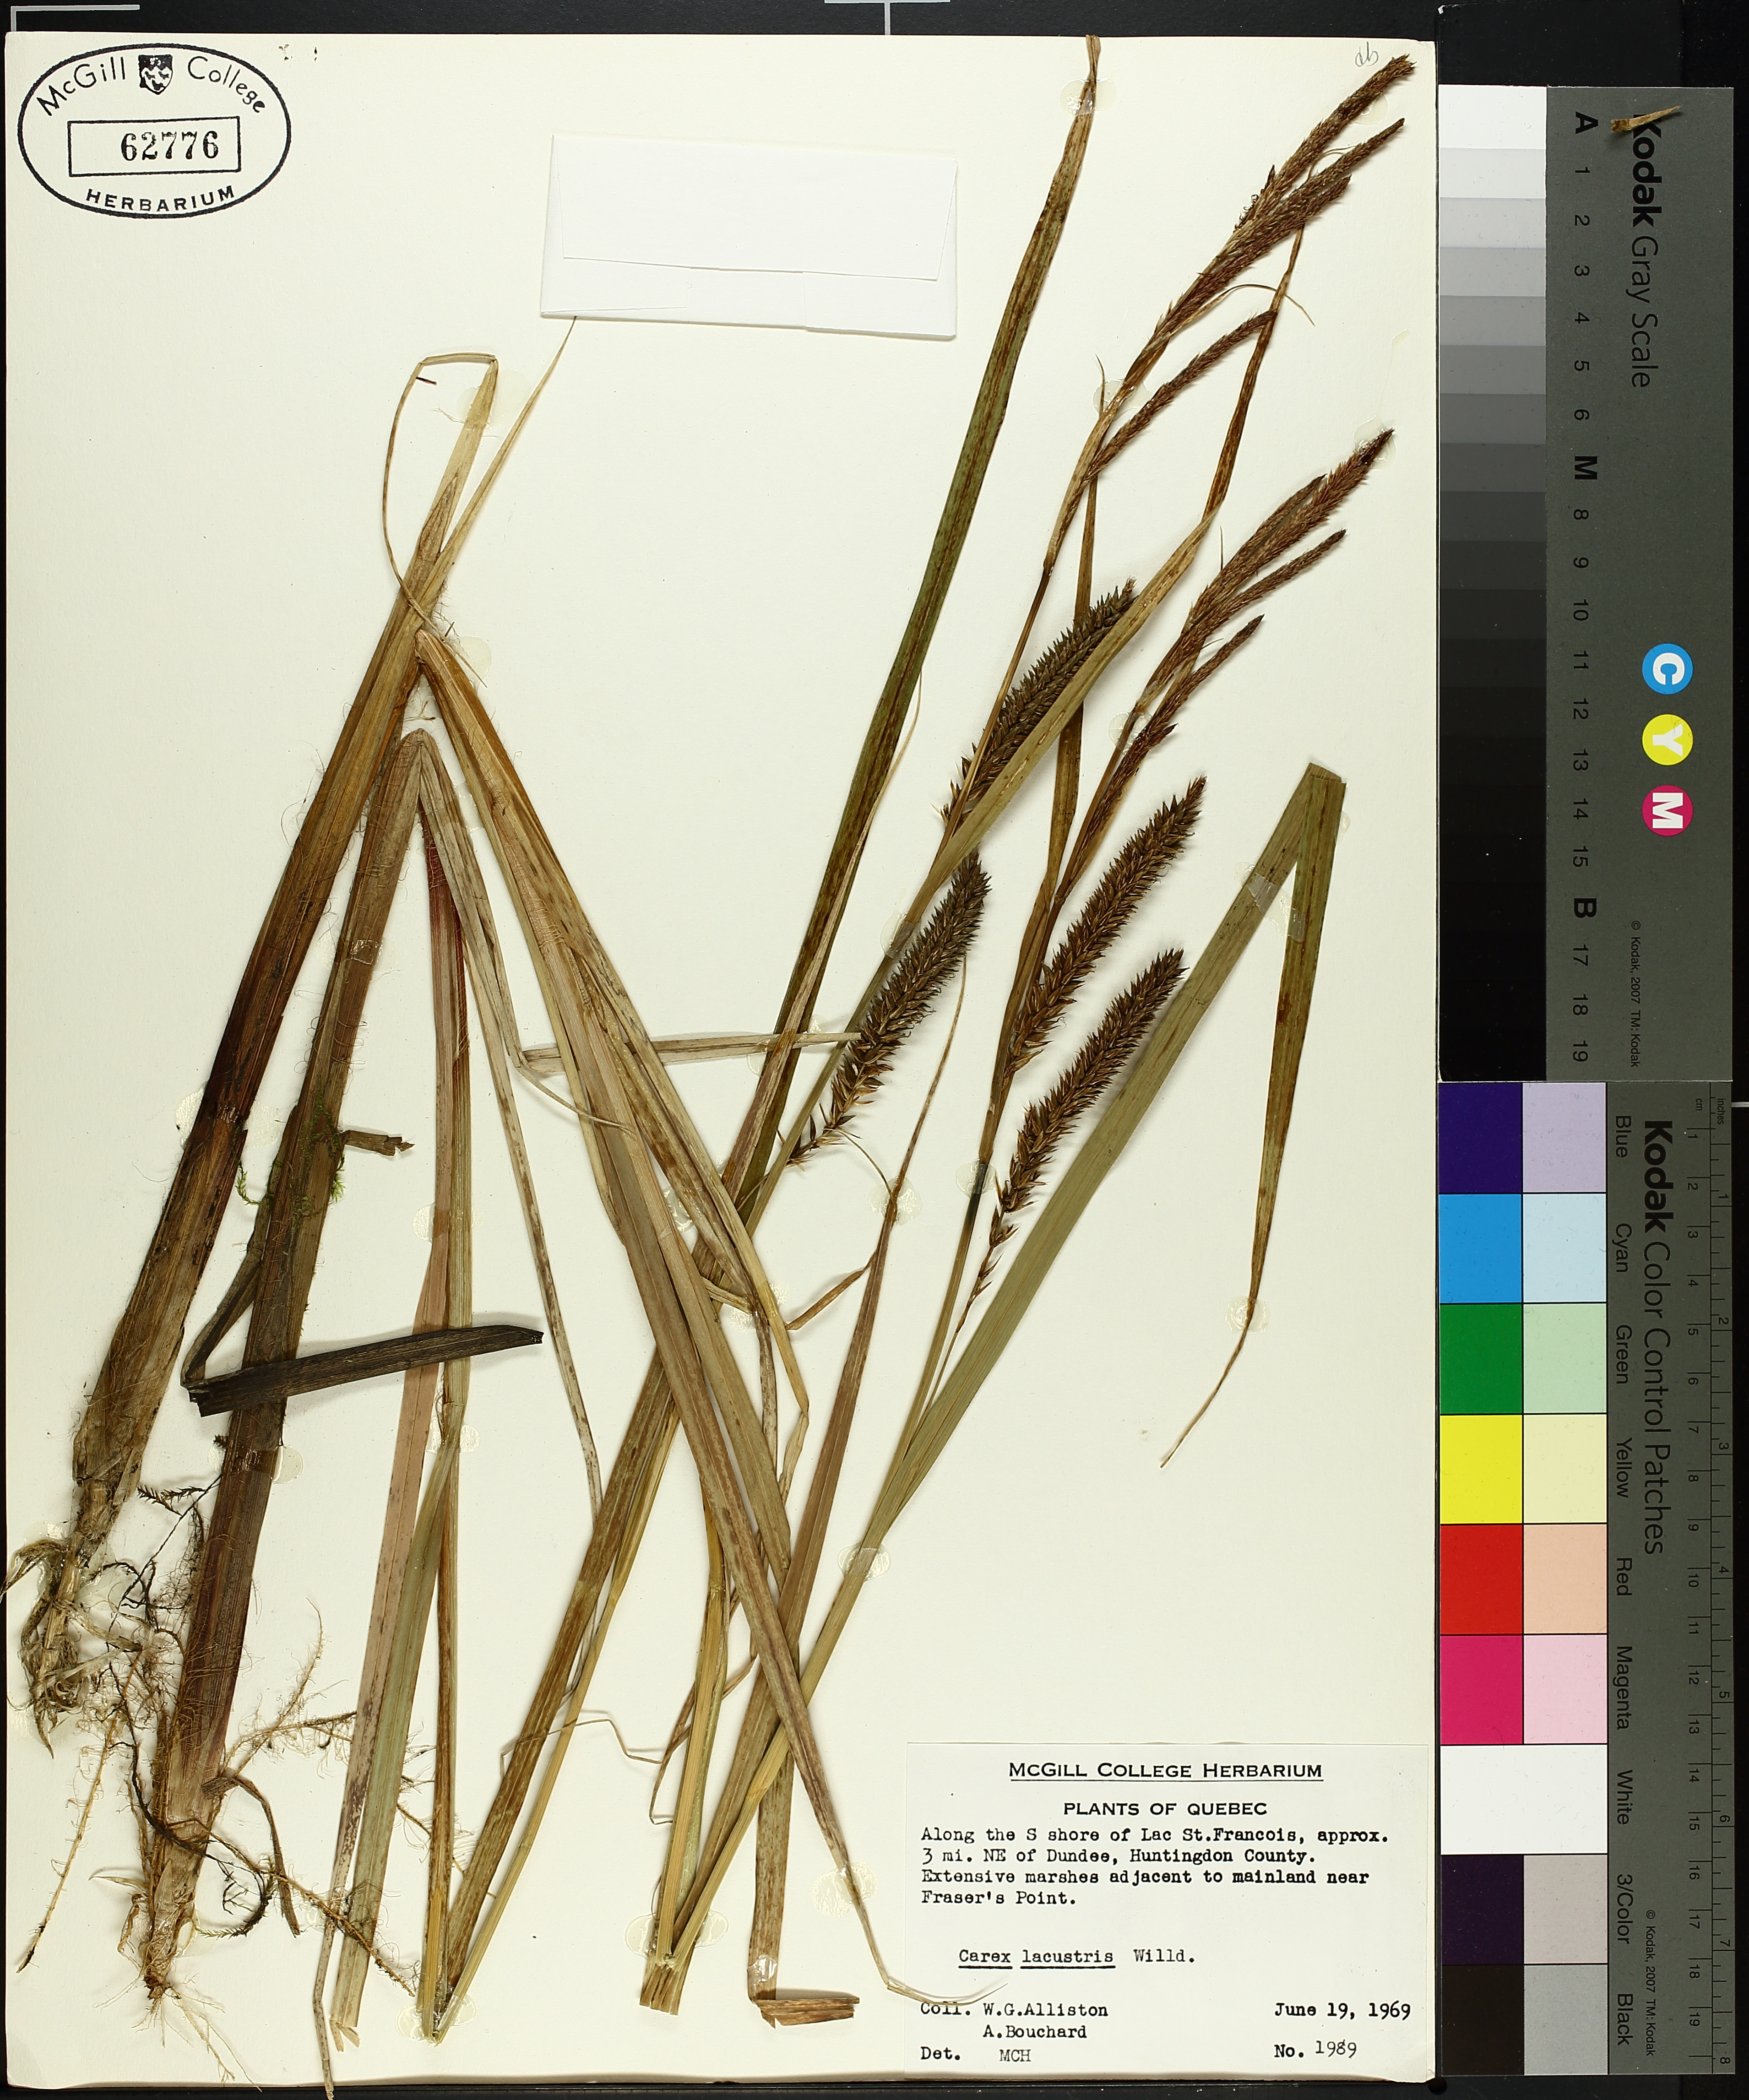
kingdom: Plantae
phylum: Tracheophyta
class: Liliopsida
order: Poales
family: Cyperaceae
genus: Carex
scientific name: Carex lacustris
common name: Common lake sedge
